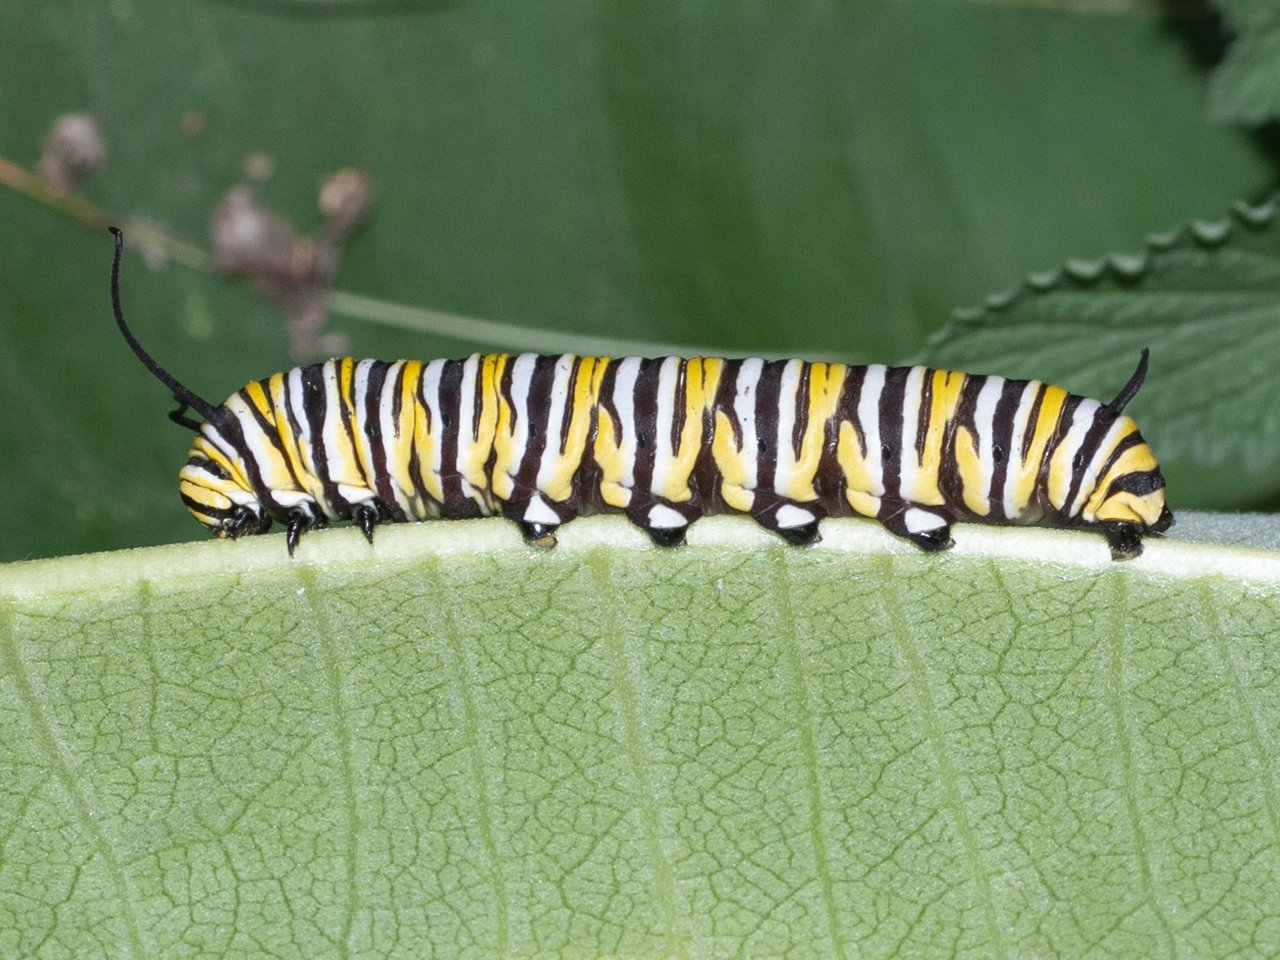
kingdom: Animalia
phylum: Arthropoda
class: Insecta
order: Lepidoptera
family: Nymphalidae
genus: Danaus
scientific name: Danaus plexippus
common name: Monarch
